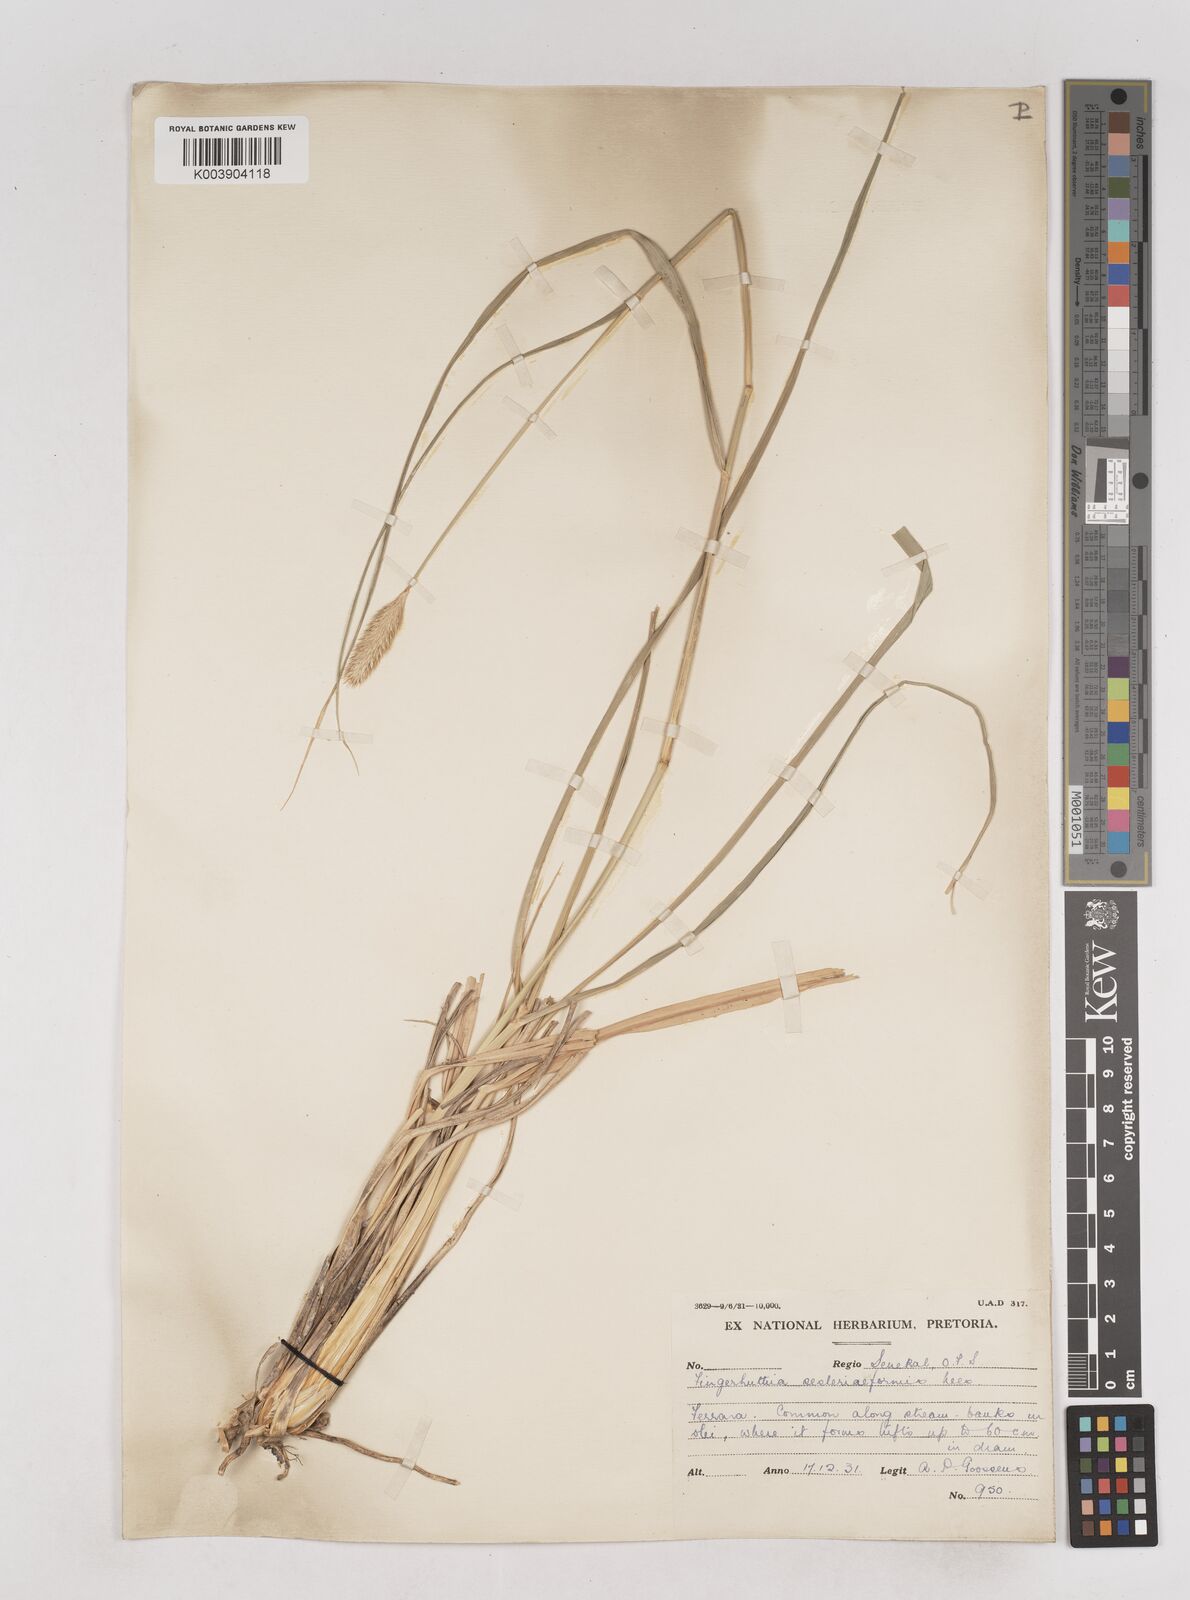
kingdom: Plantae
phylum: Tracheophyta
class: Liliopsida
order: Poales
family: Poaceae
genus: Fingerhuthia
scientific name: Fingerhuthia sesleriiformis
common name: Thimble grass
